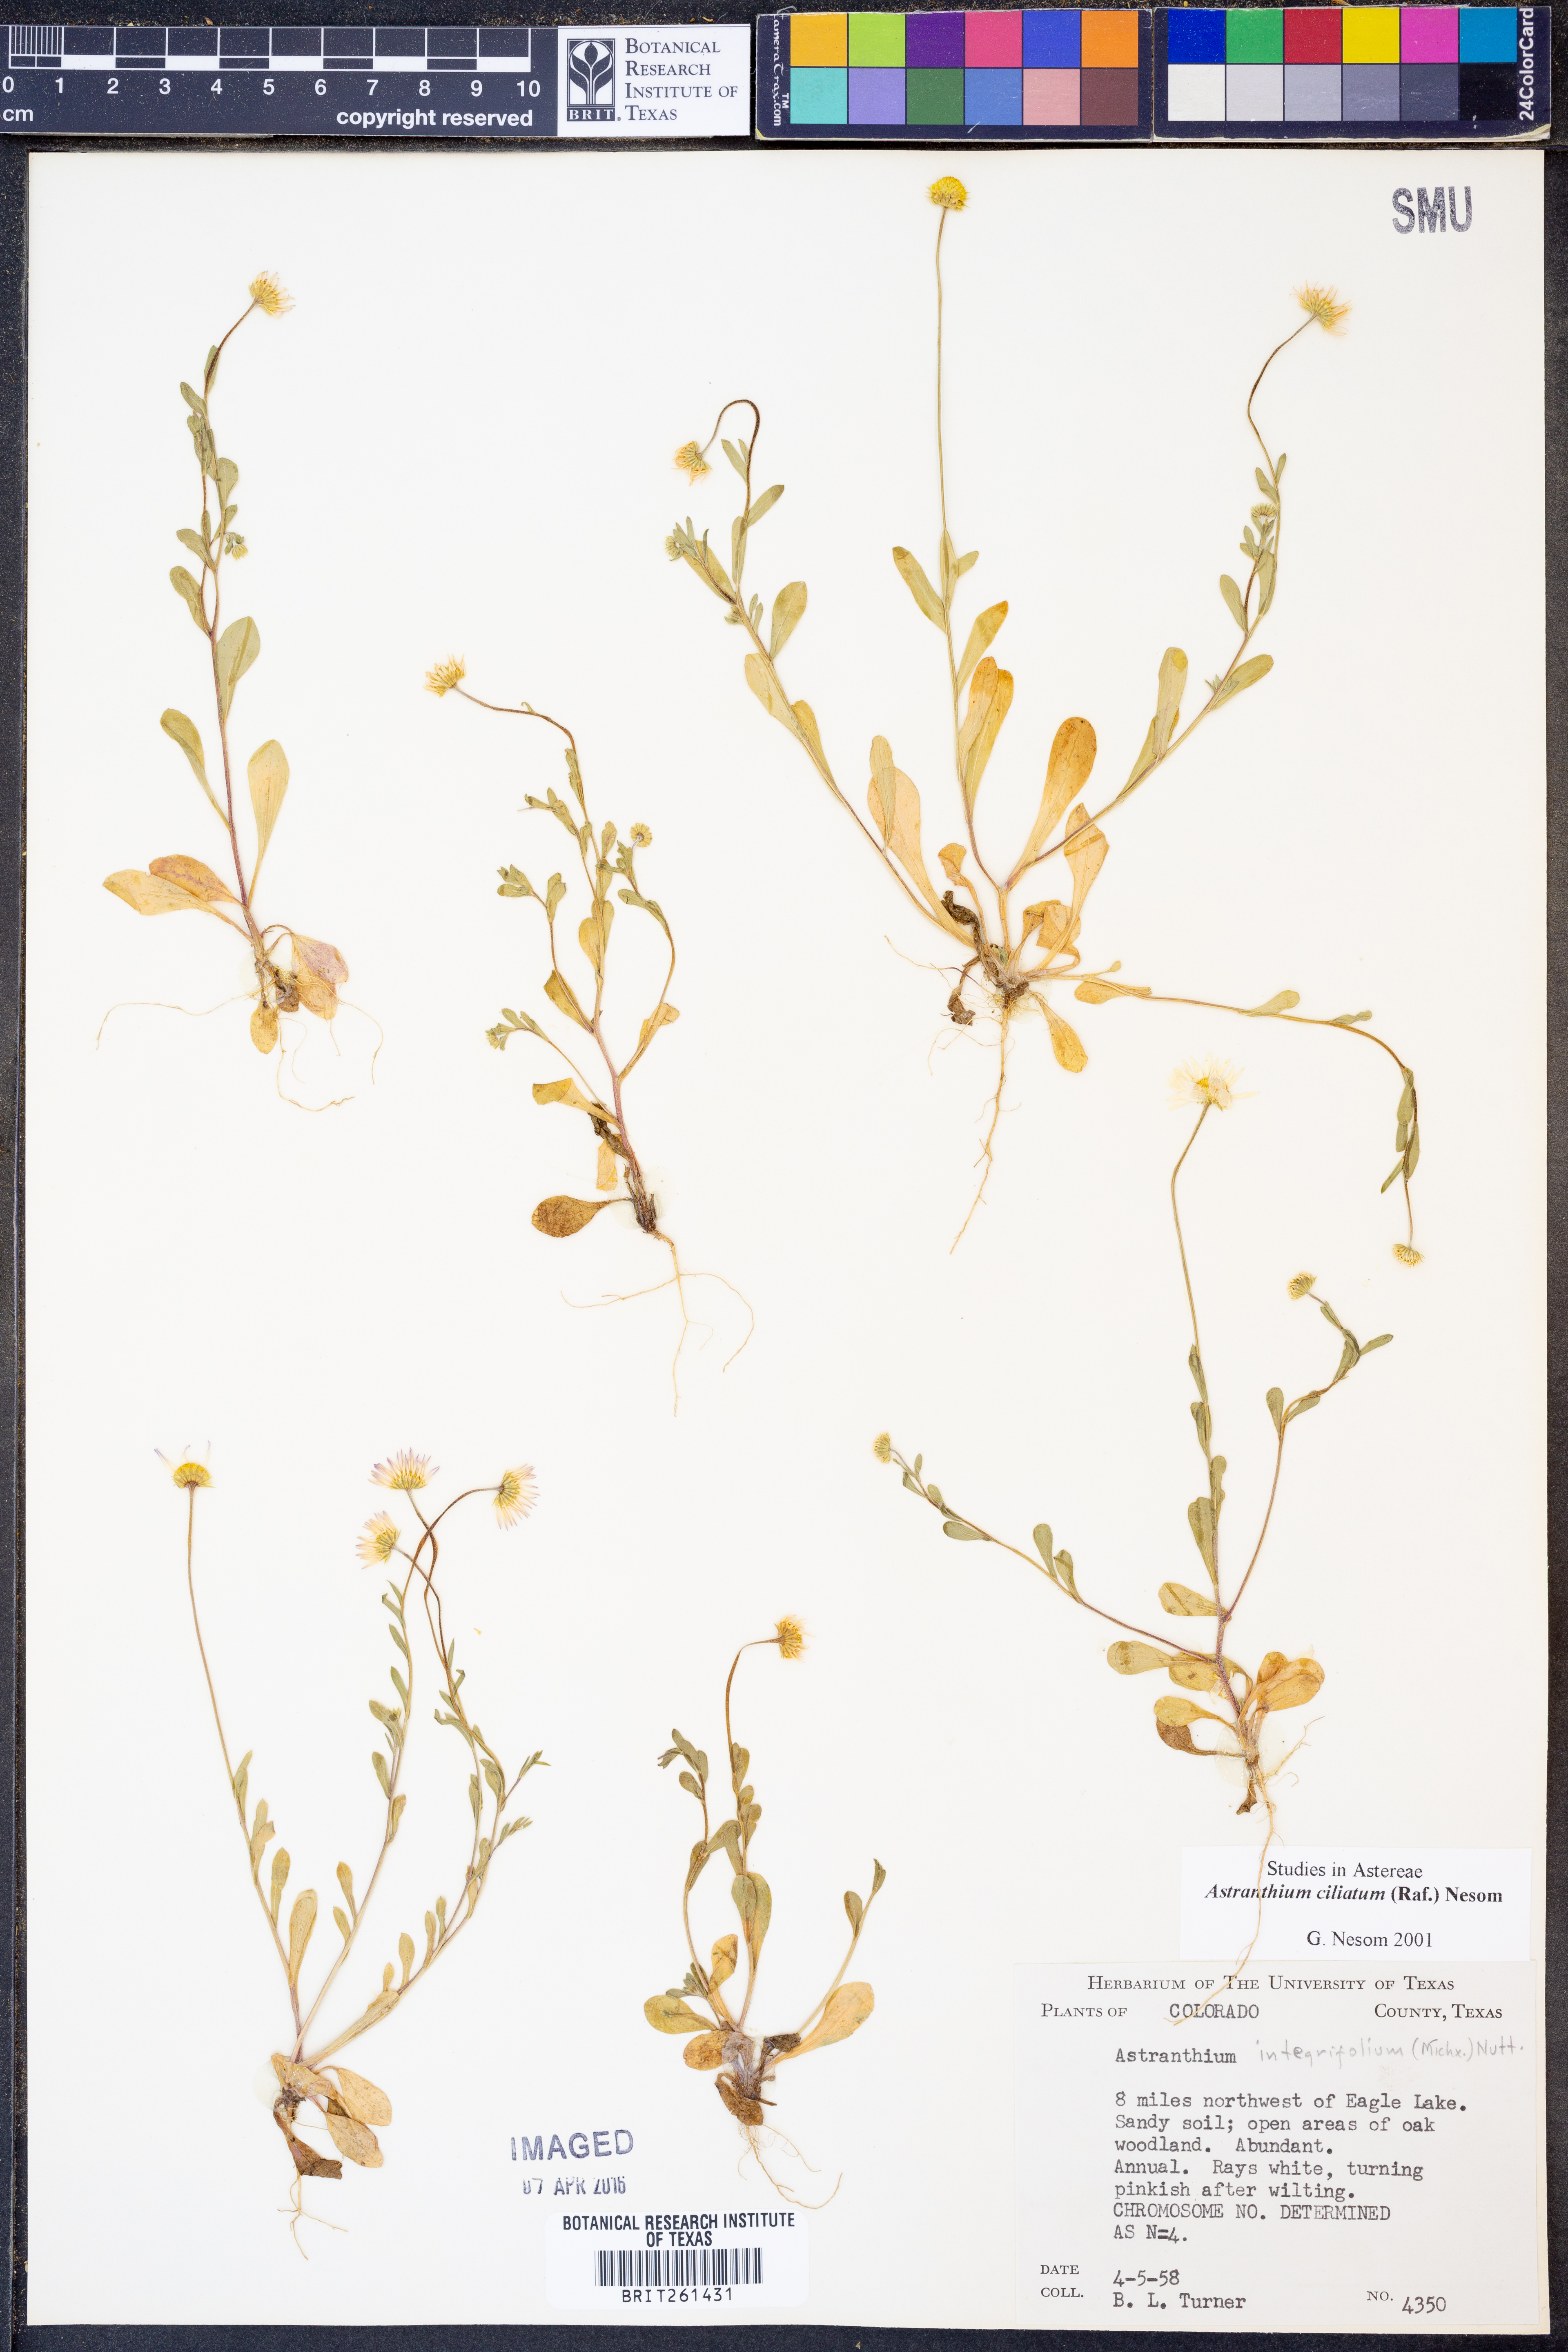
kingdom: Plantae
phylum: Tracheophyta
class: Magnoliopsida
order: Asterales
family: Asteraceae
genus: Astranthium
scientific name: Astranthium ciliatum
